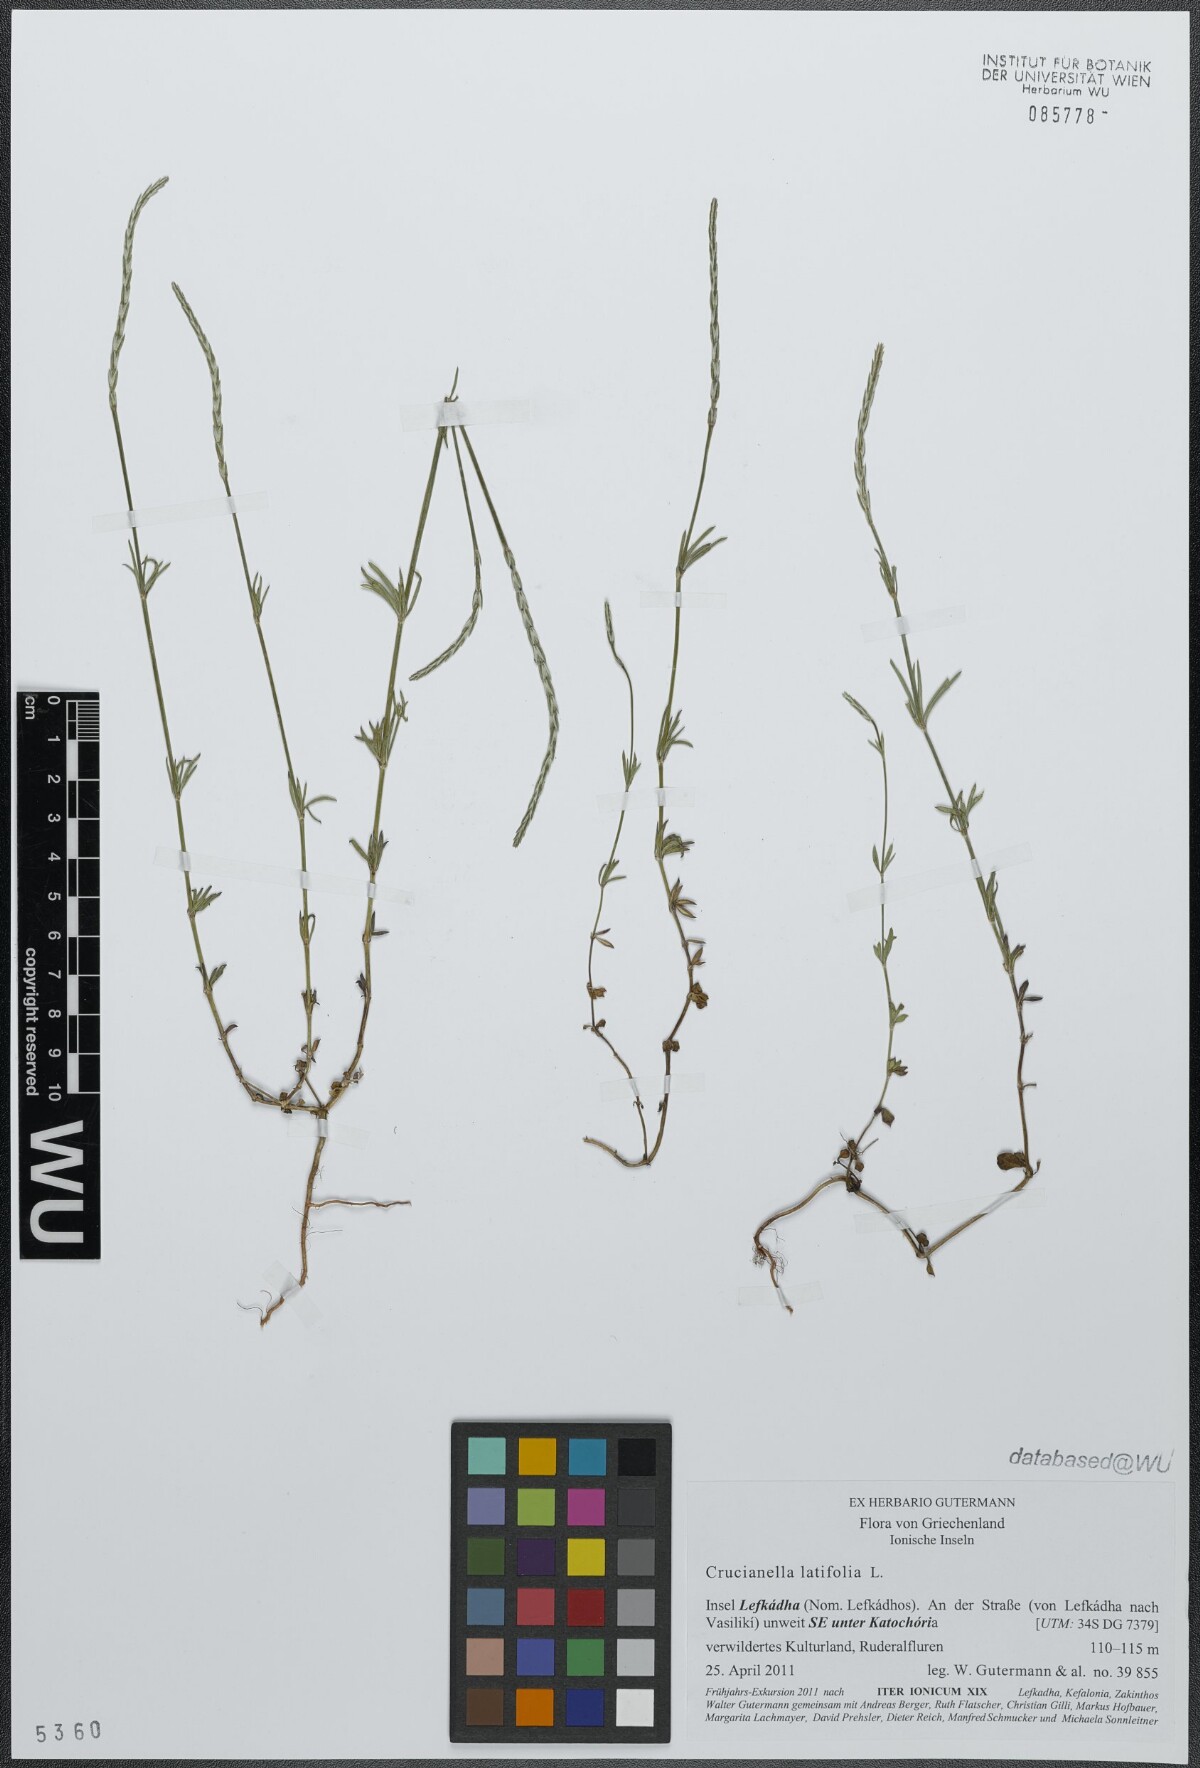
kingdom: Plantae
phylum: Tracheophyta
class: Magnoliopsida
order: Gentianales
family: Rubiaceae
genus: Crucianella
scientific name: Crucianella latifolia
